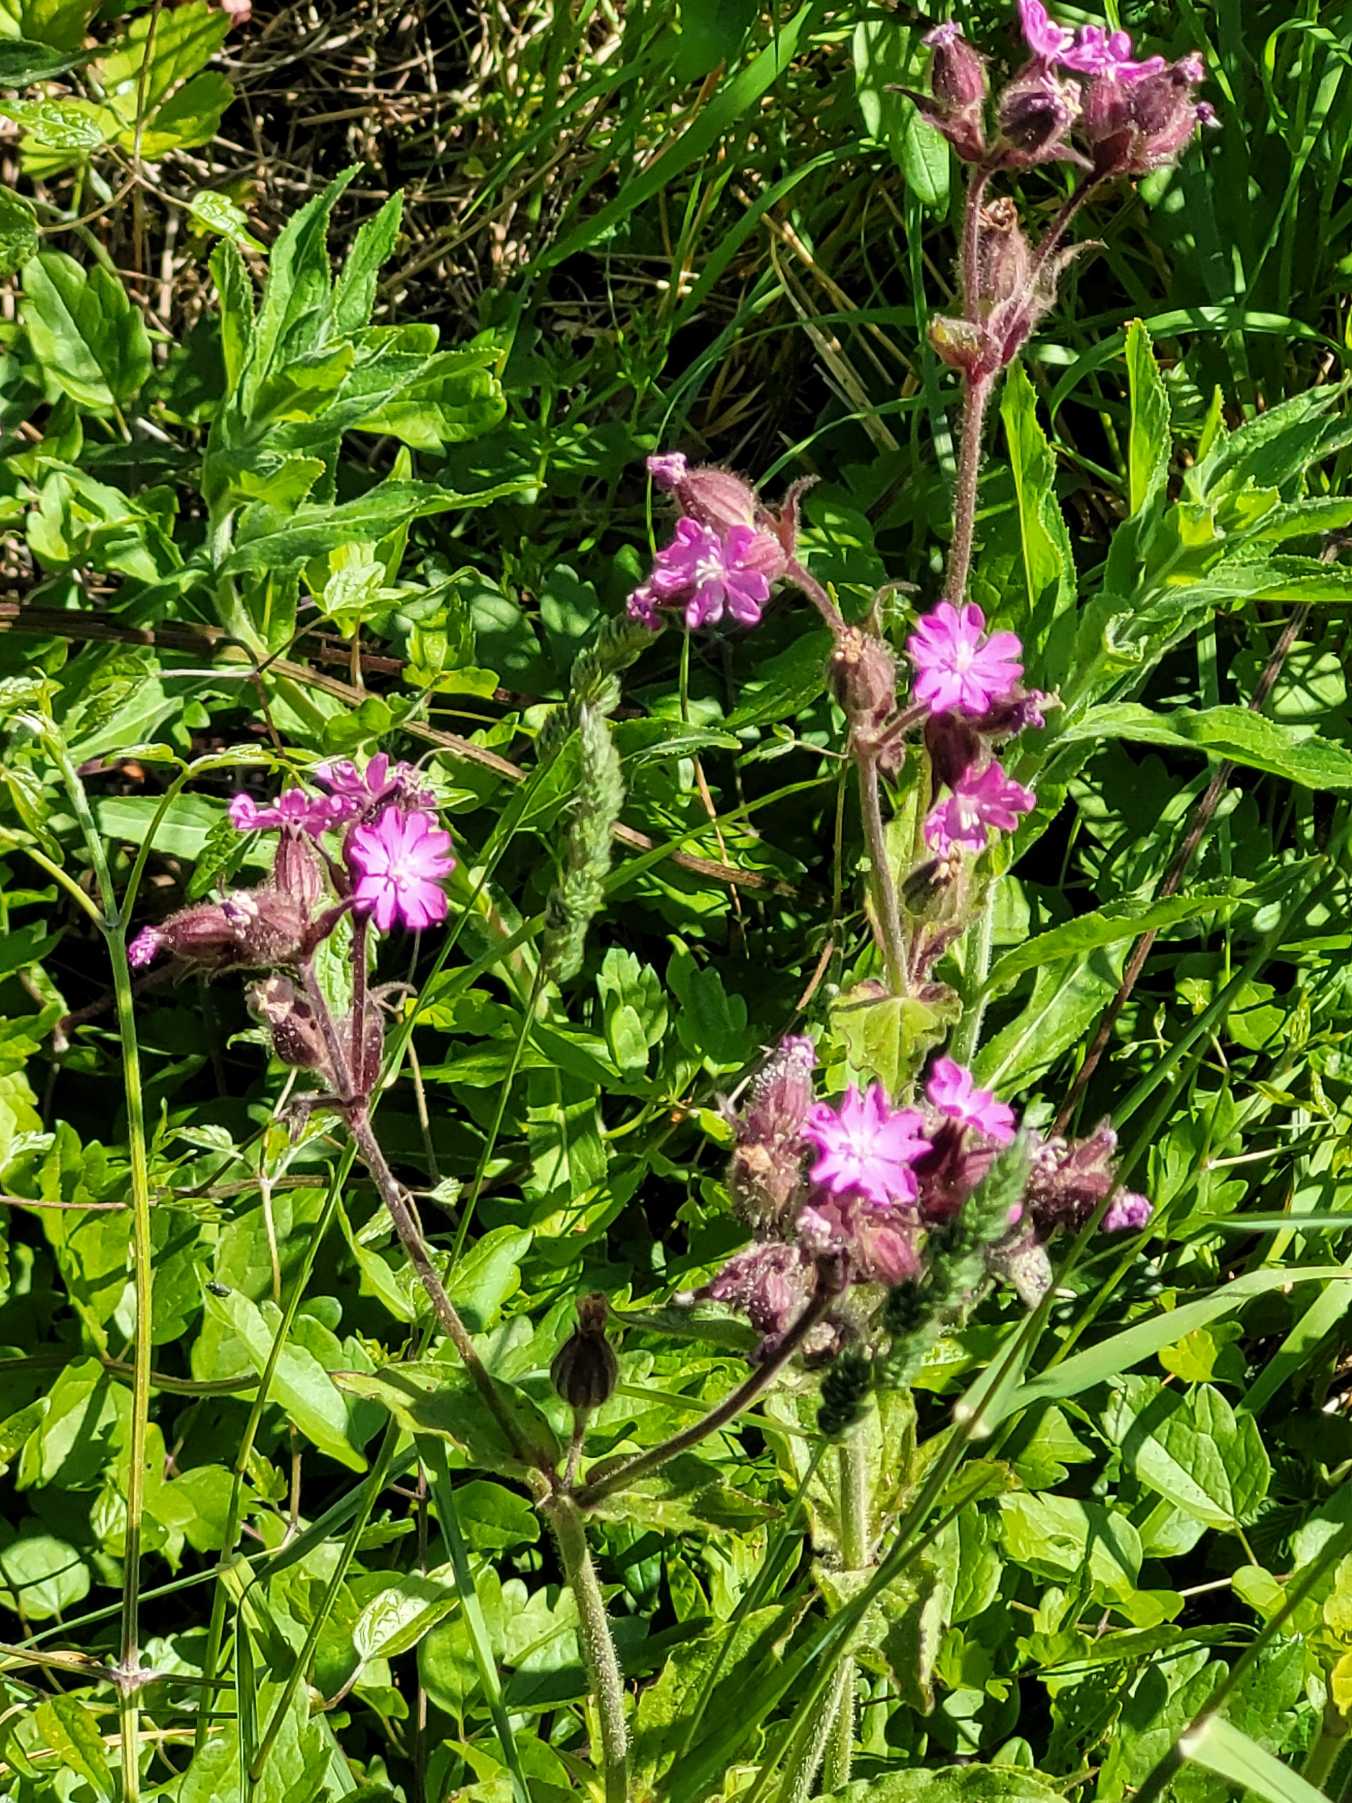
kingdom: Plantae
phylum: Tracheophyta
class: Magnoliopsida
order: Caryophyllales
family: Caryophyllaceae
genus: Silene
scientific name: Silene dioica
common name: Dagpragtstjerne
